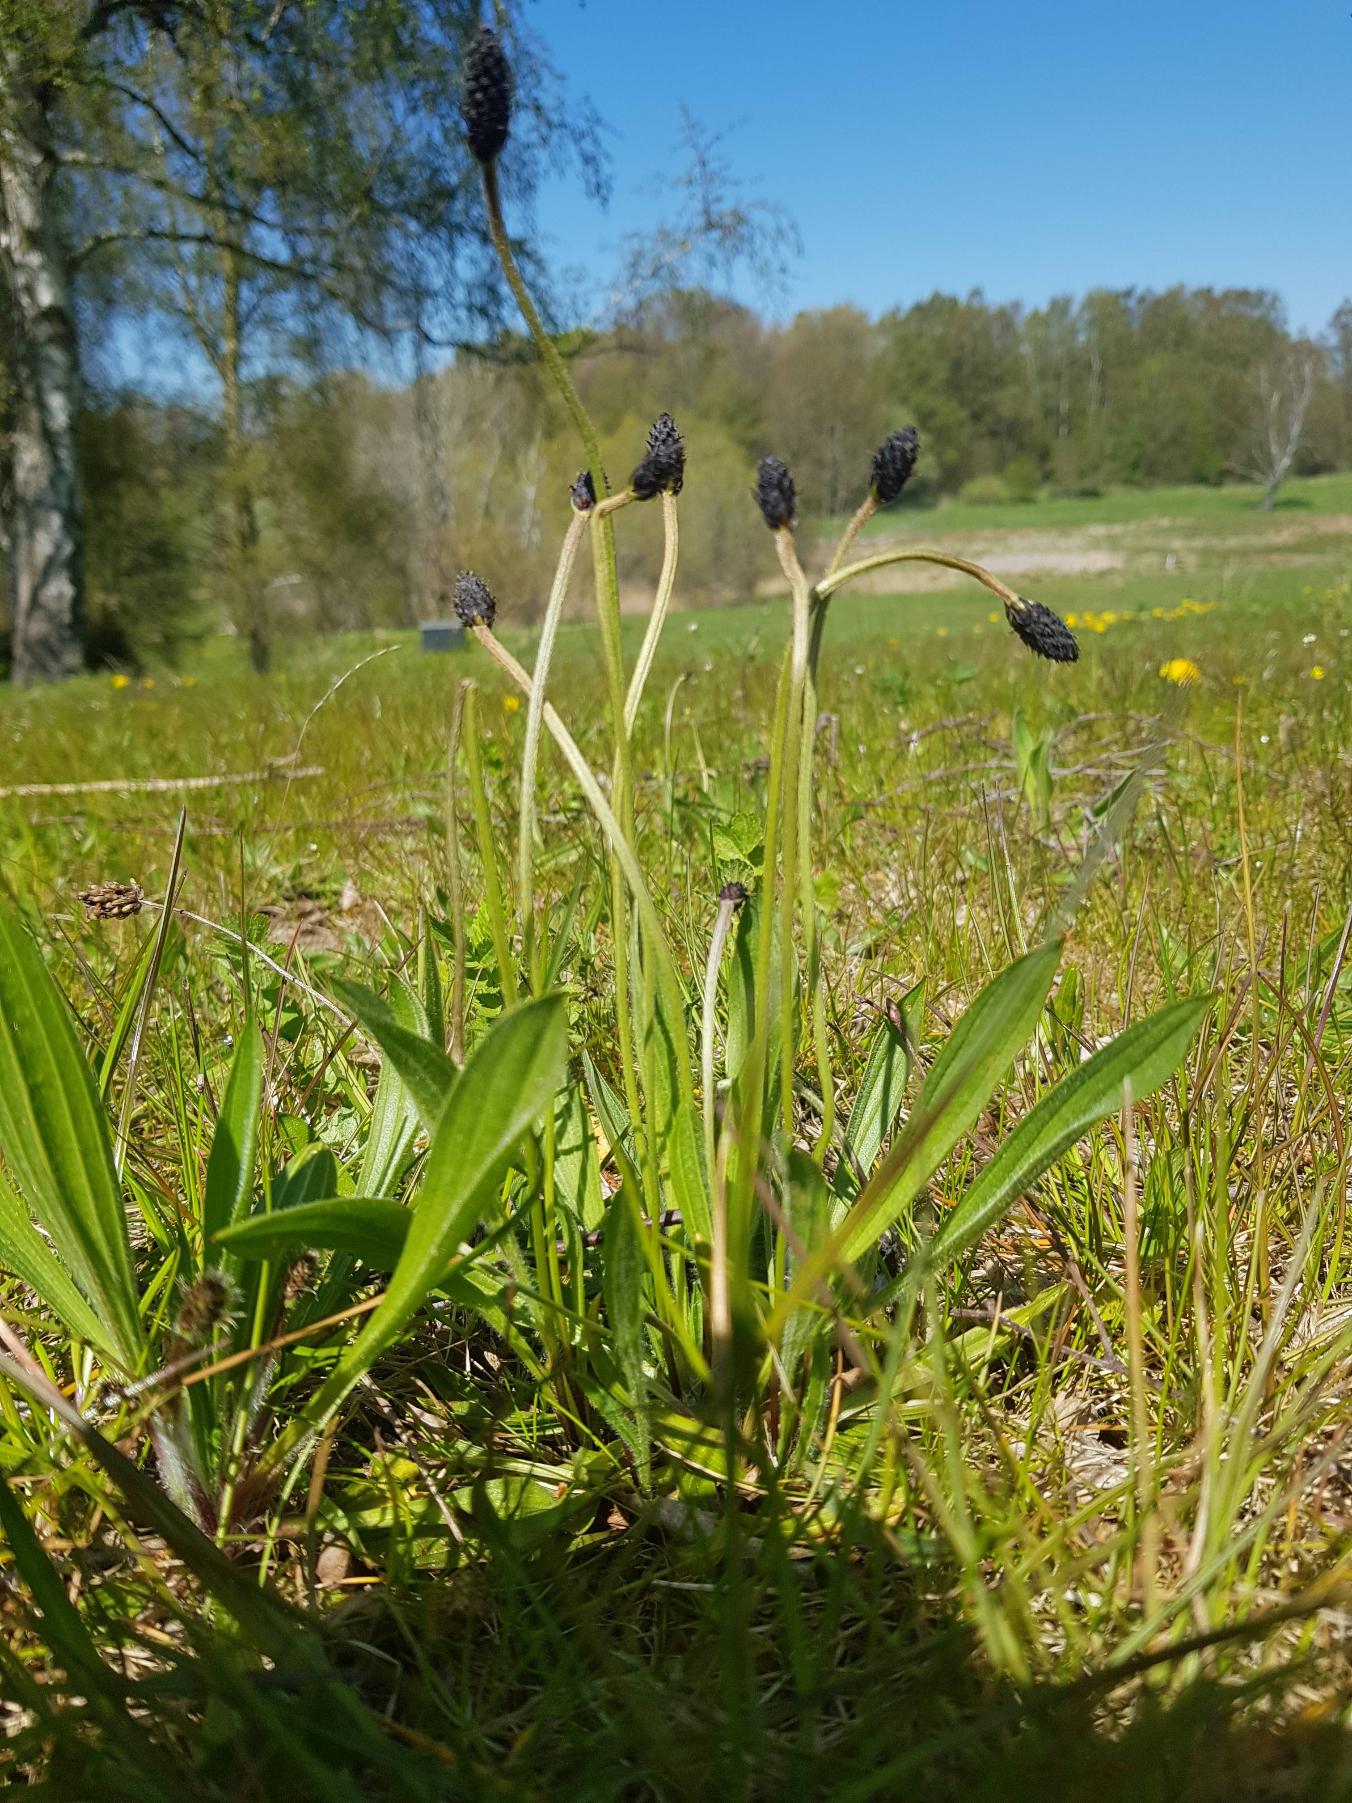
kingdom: Plantae
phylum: Tracheophyta
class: Magnoliopsida
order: Lamiales
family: Plantaginaceae
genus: Plantago
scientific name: Plantago lanceolata
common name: Lancet-vejbred
